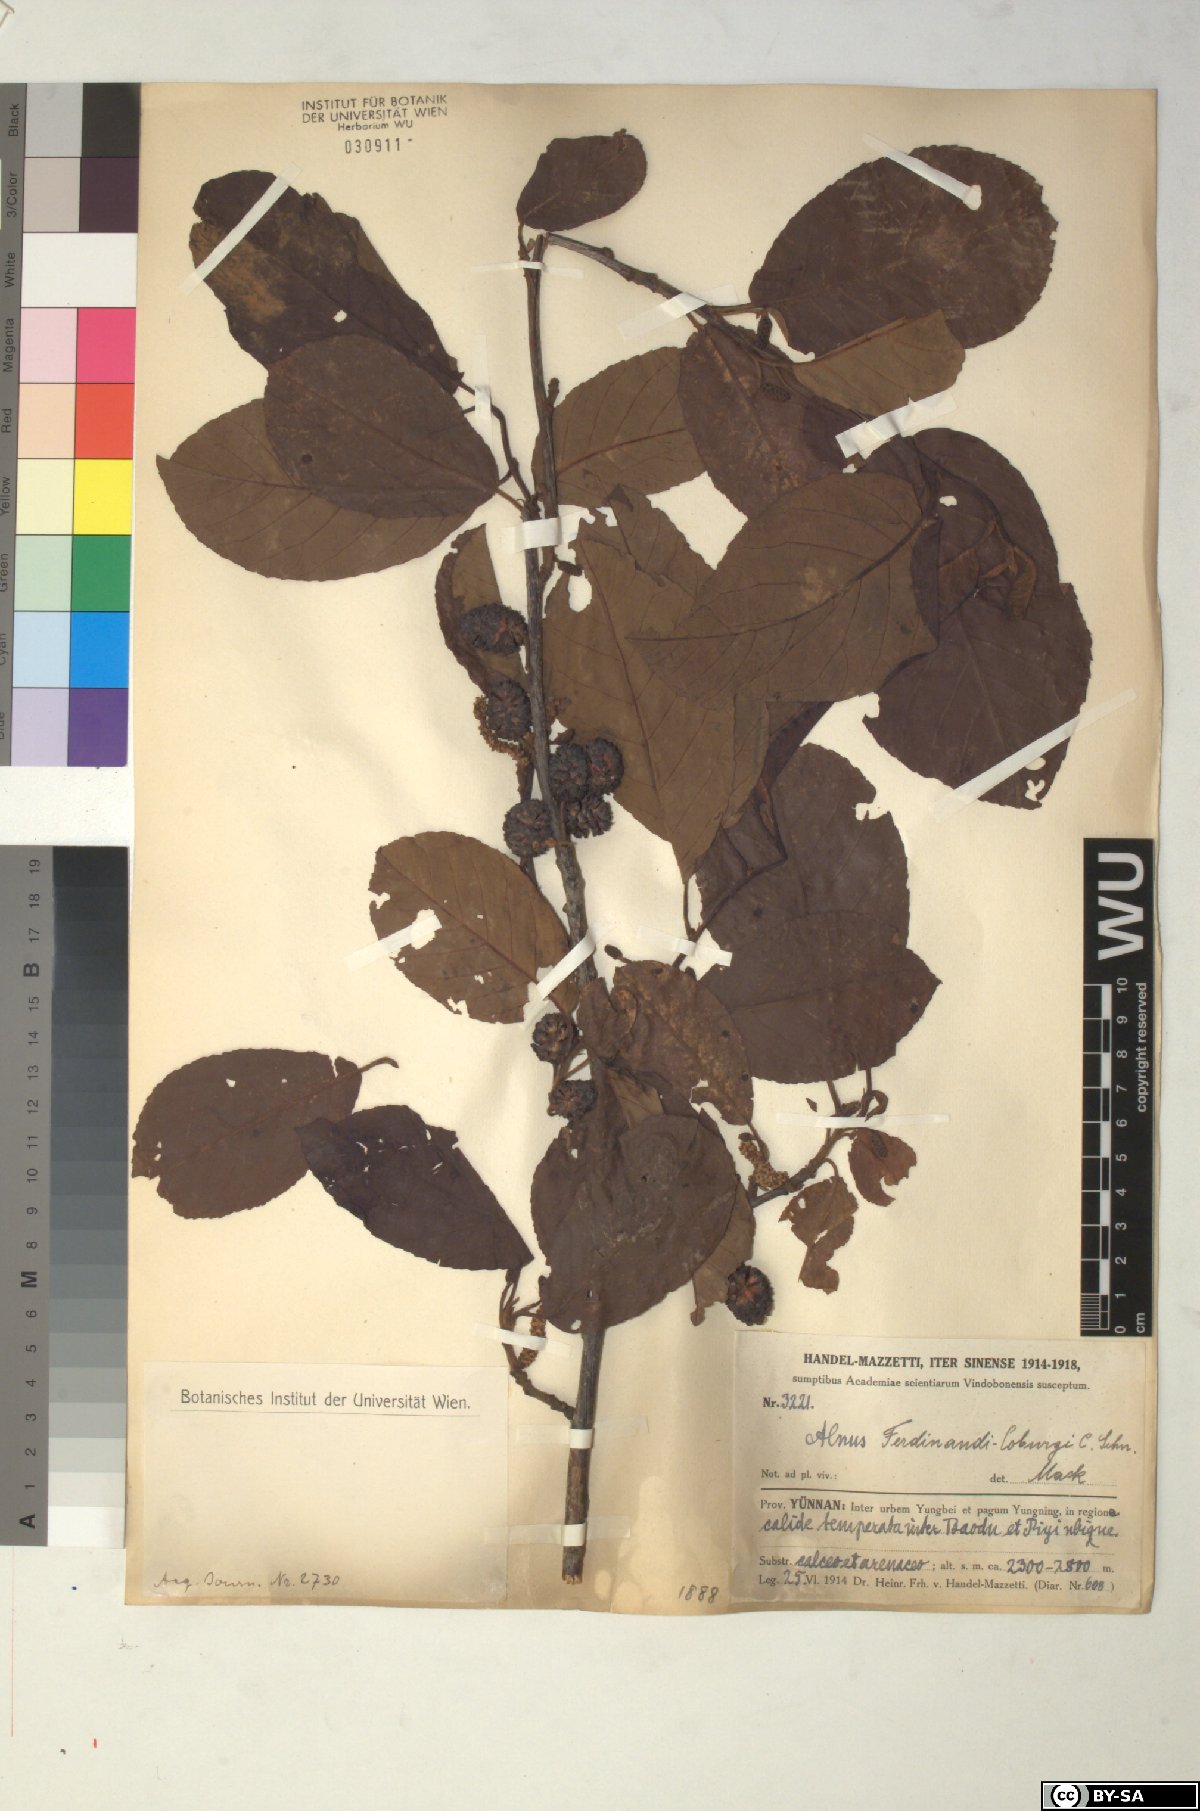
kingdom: Plantae
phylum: Tracheophyta
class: Magnoliopsida
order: Fagales
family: Betulaceae
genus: Alnus
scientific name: Alnus ferdinandi-coburgii
